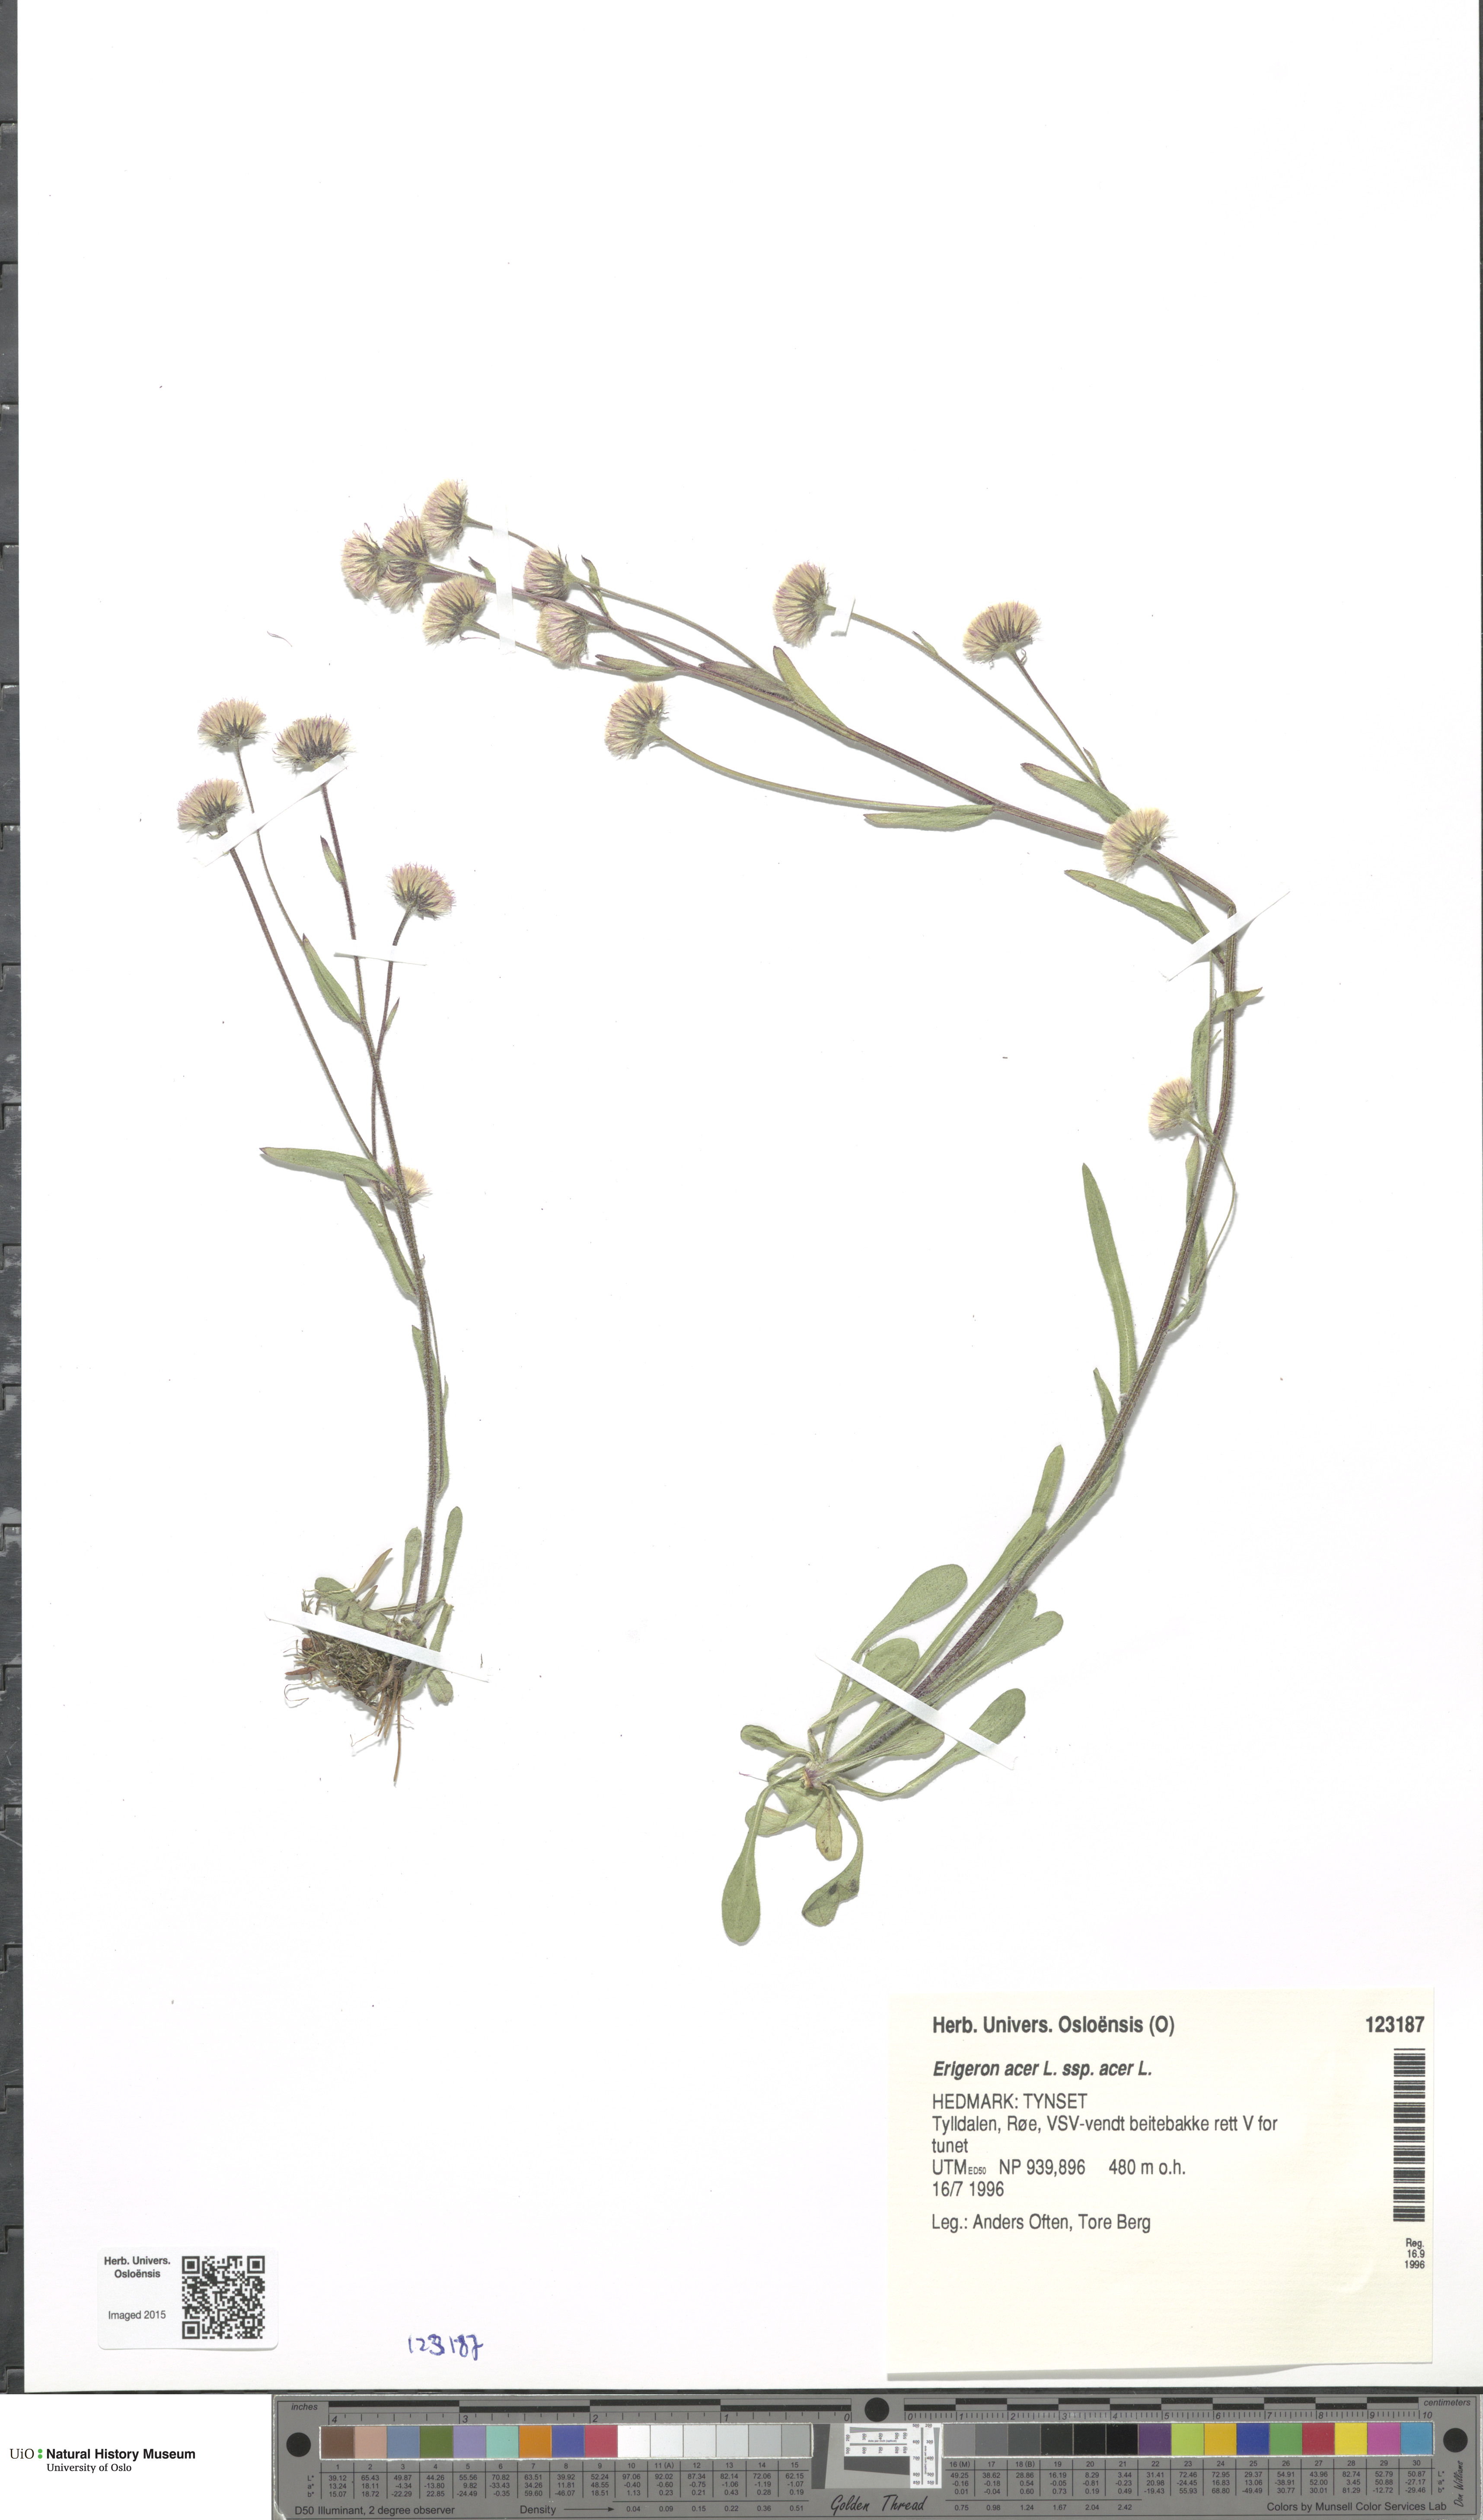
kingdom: Plantae
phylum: Tracheophyta
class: Magnoliopsida
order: Dipsacales
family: Viburnaceae
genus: Viburnum
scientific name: Viburnum lantana
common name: Wayfaring tree
